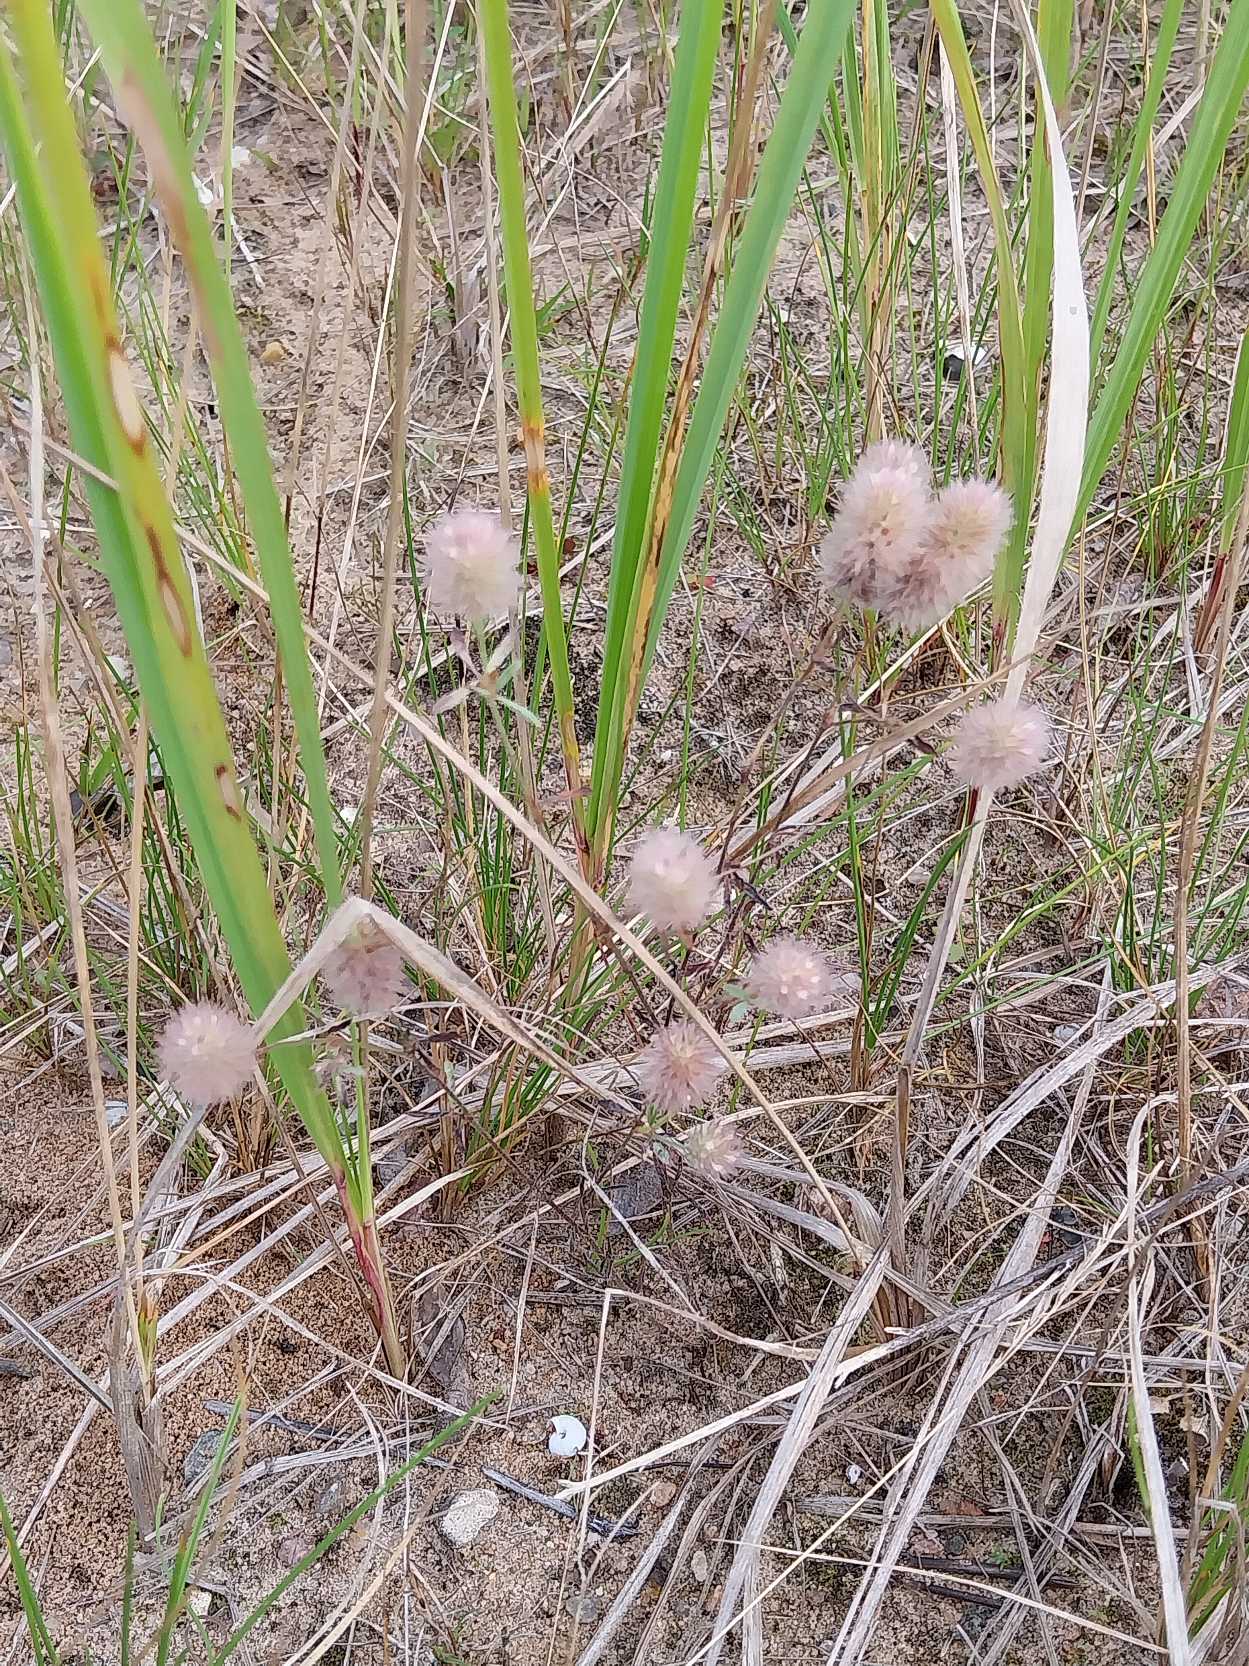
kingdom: Plantae
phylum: Tracheophyta
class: Magnoliopsida
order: Fabales
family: Fabaceae
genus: Trifolium
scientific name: Trifolium arvense
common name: Hare-kløver
